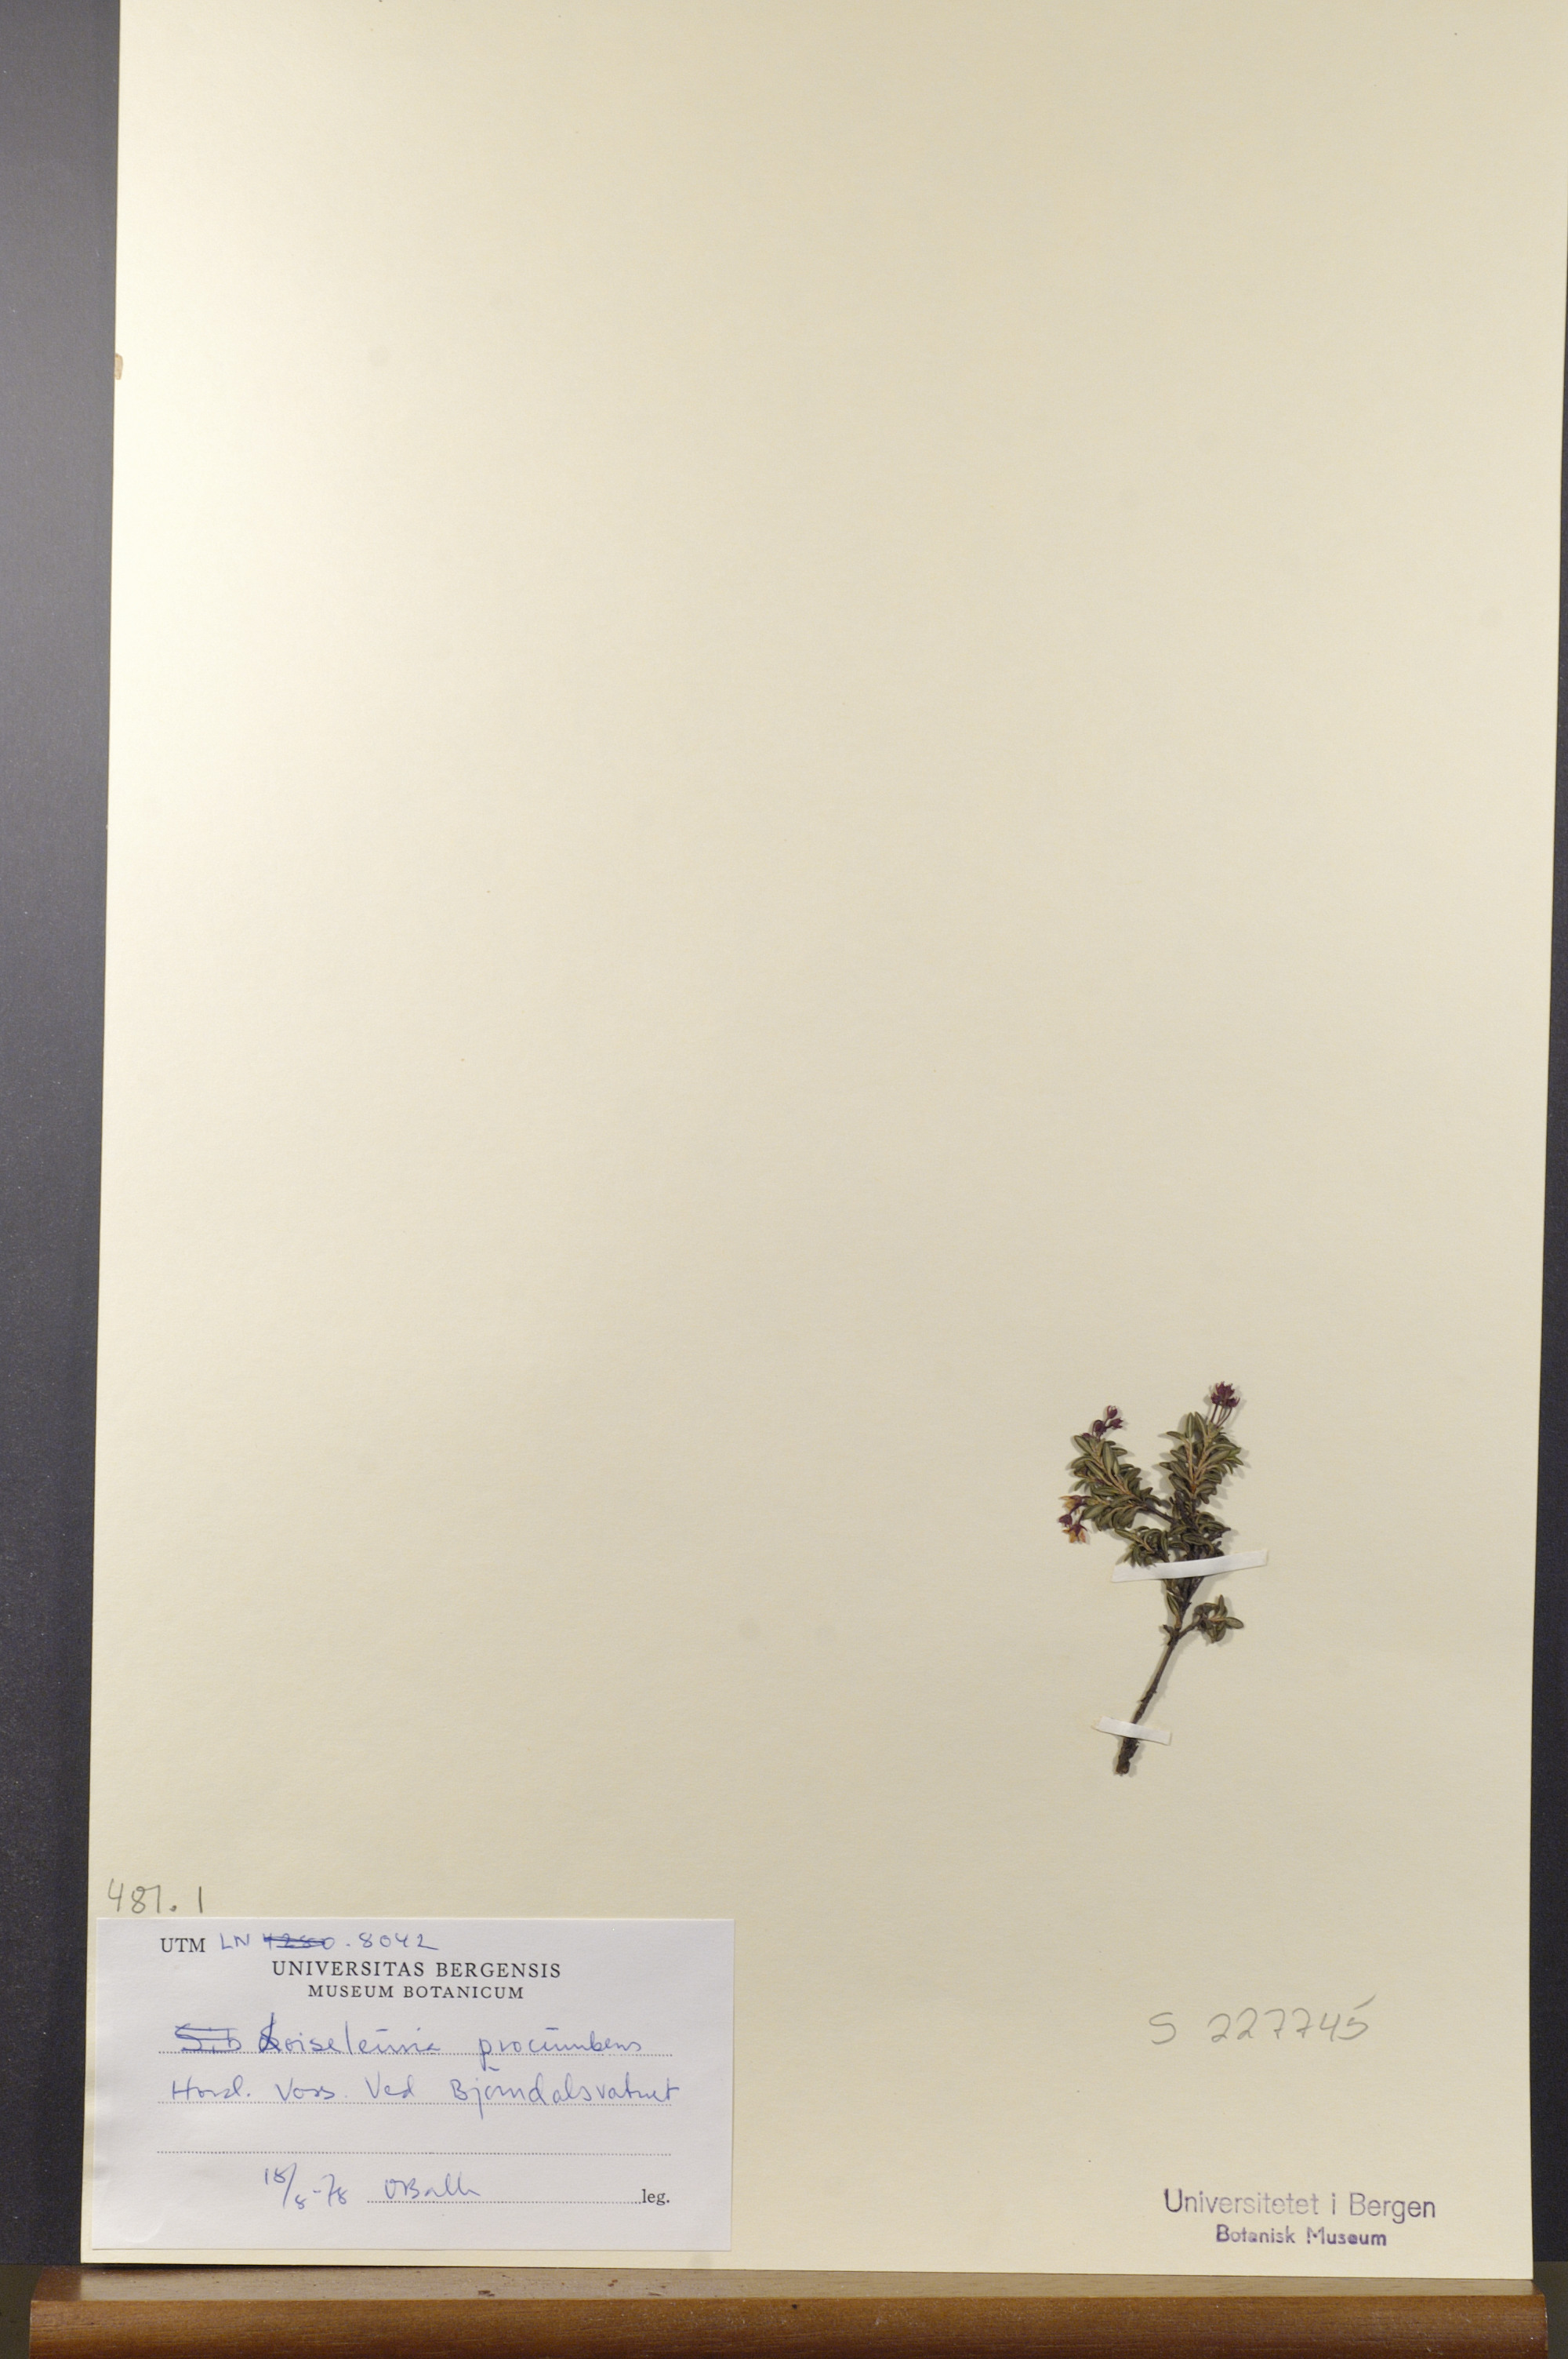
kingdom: Plantae
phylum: Tracheophyta
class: Magnoliopsida
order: Ericales
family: Ericaceae
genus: Kalmia
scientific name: Kalmia procumbens
